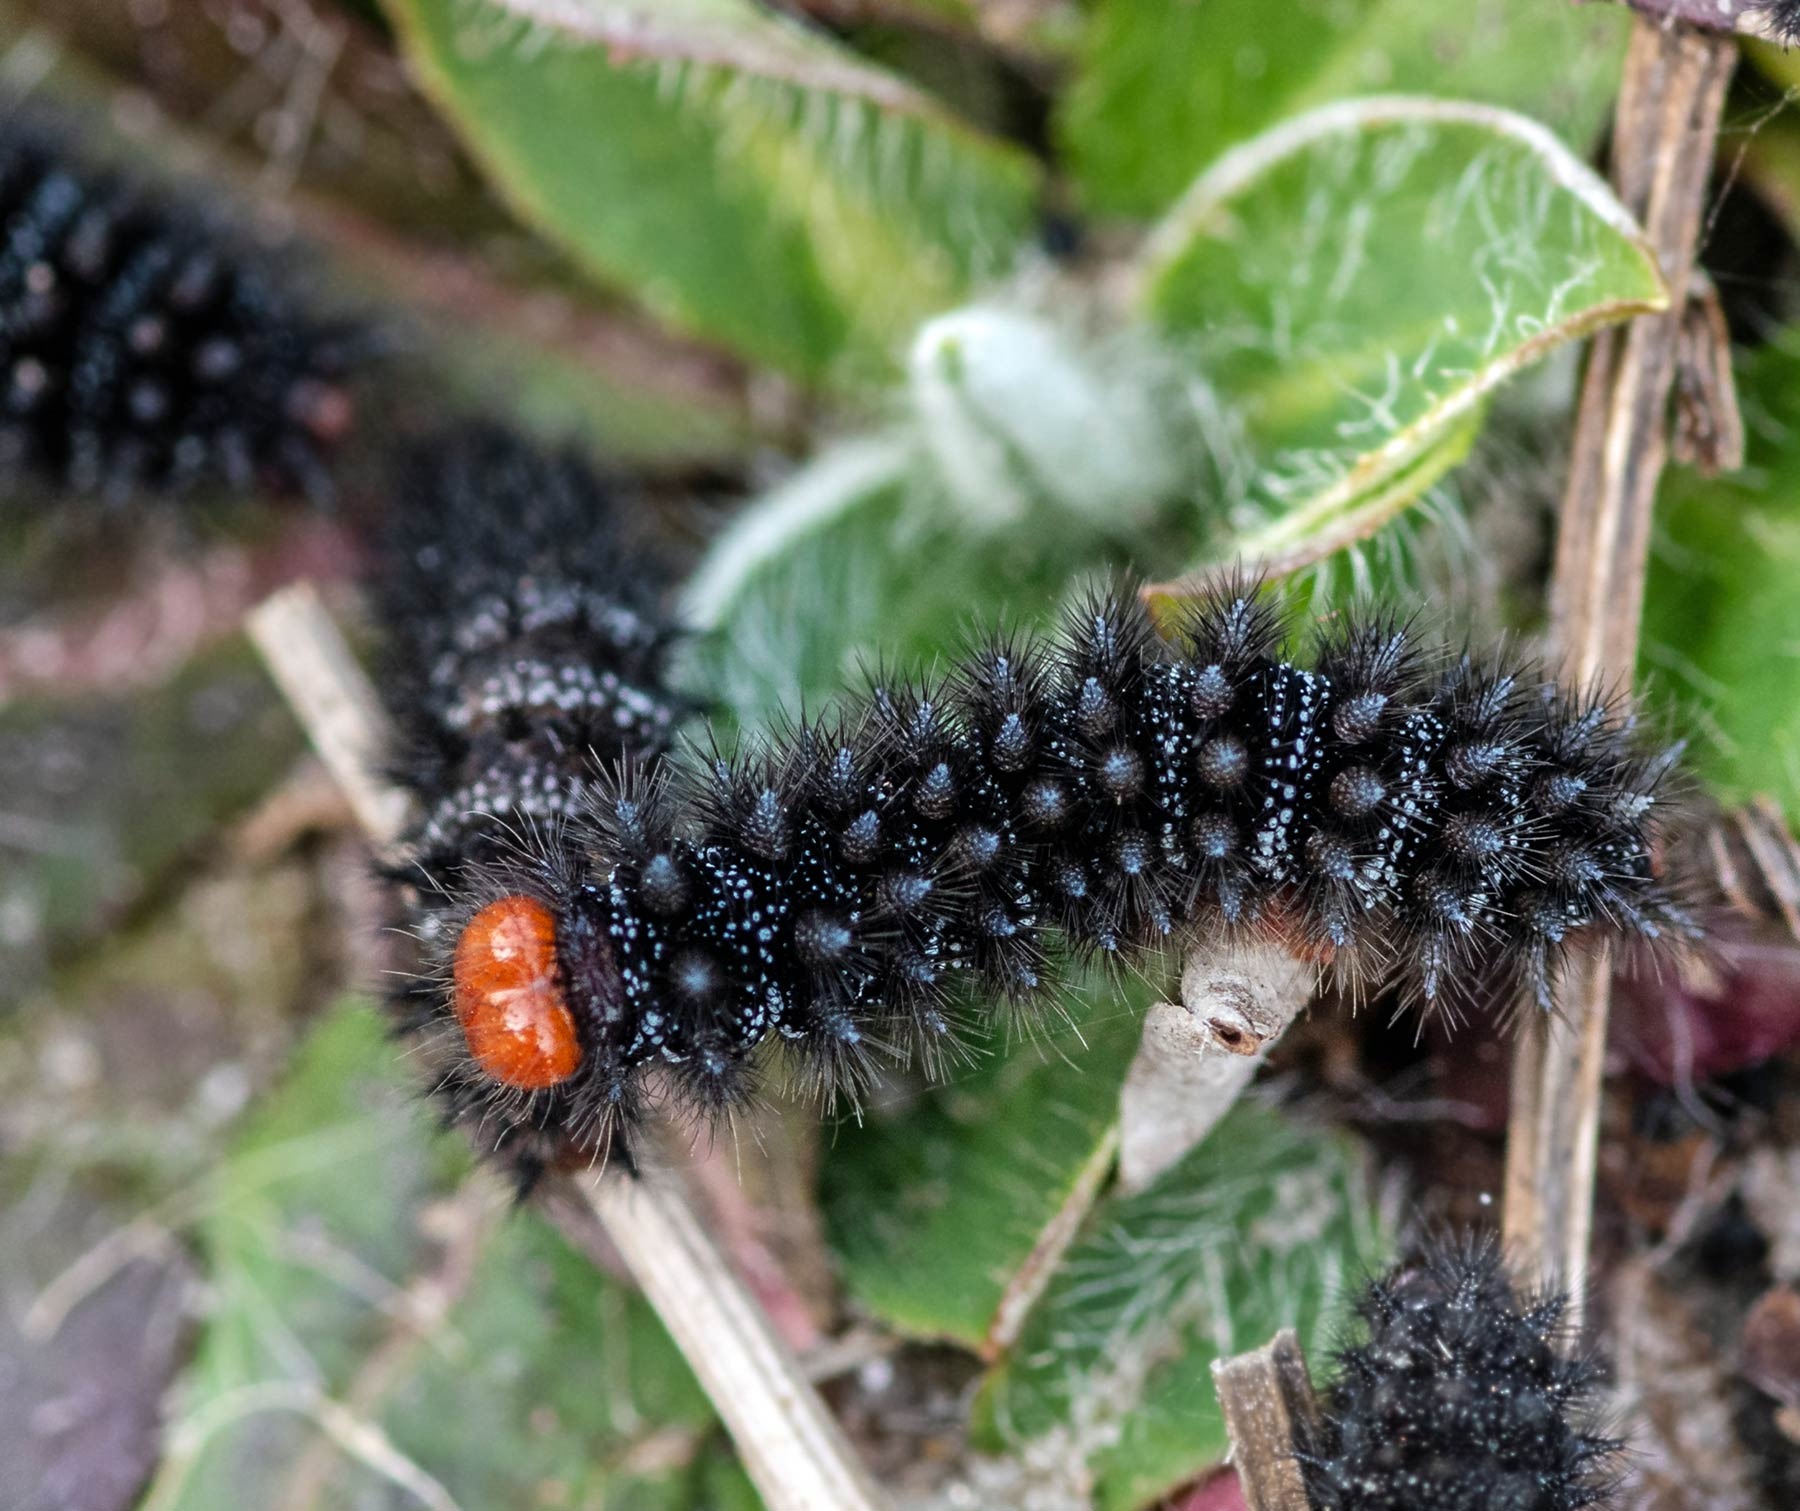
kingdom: Animalia
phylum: Arthropoda
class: Insecta
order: Lepidoptera
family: Nymphalidae
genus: Melitaea
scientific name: Melitaea cinxia
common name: Okkergul pletvinge
